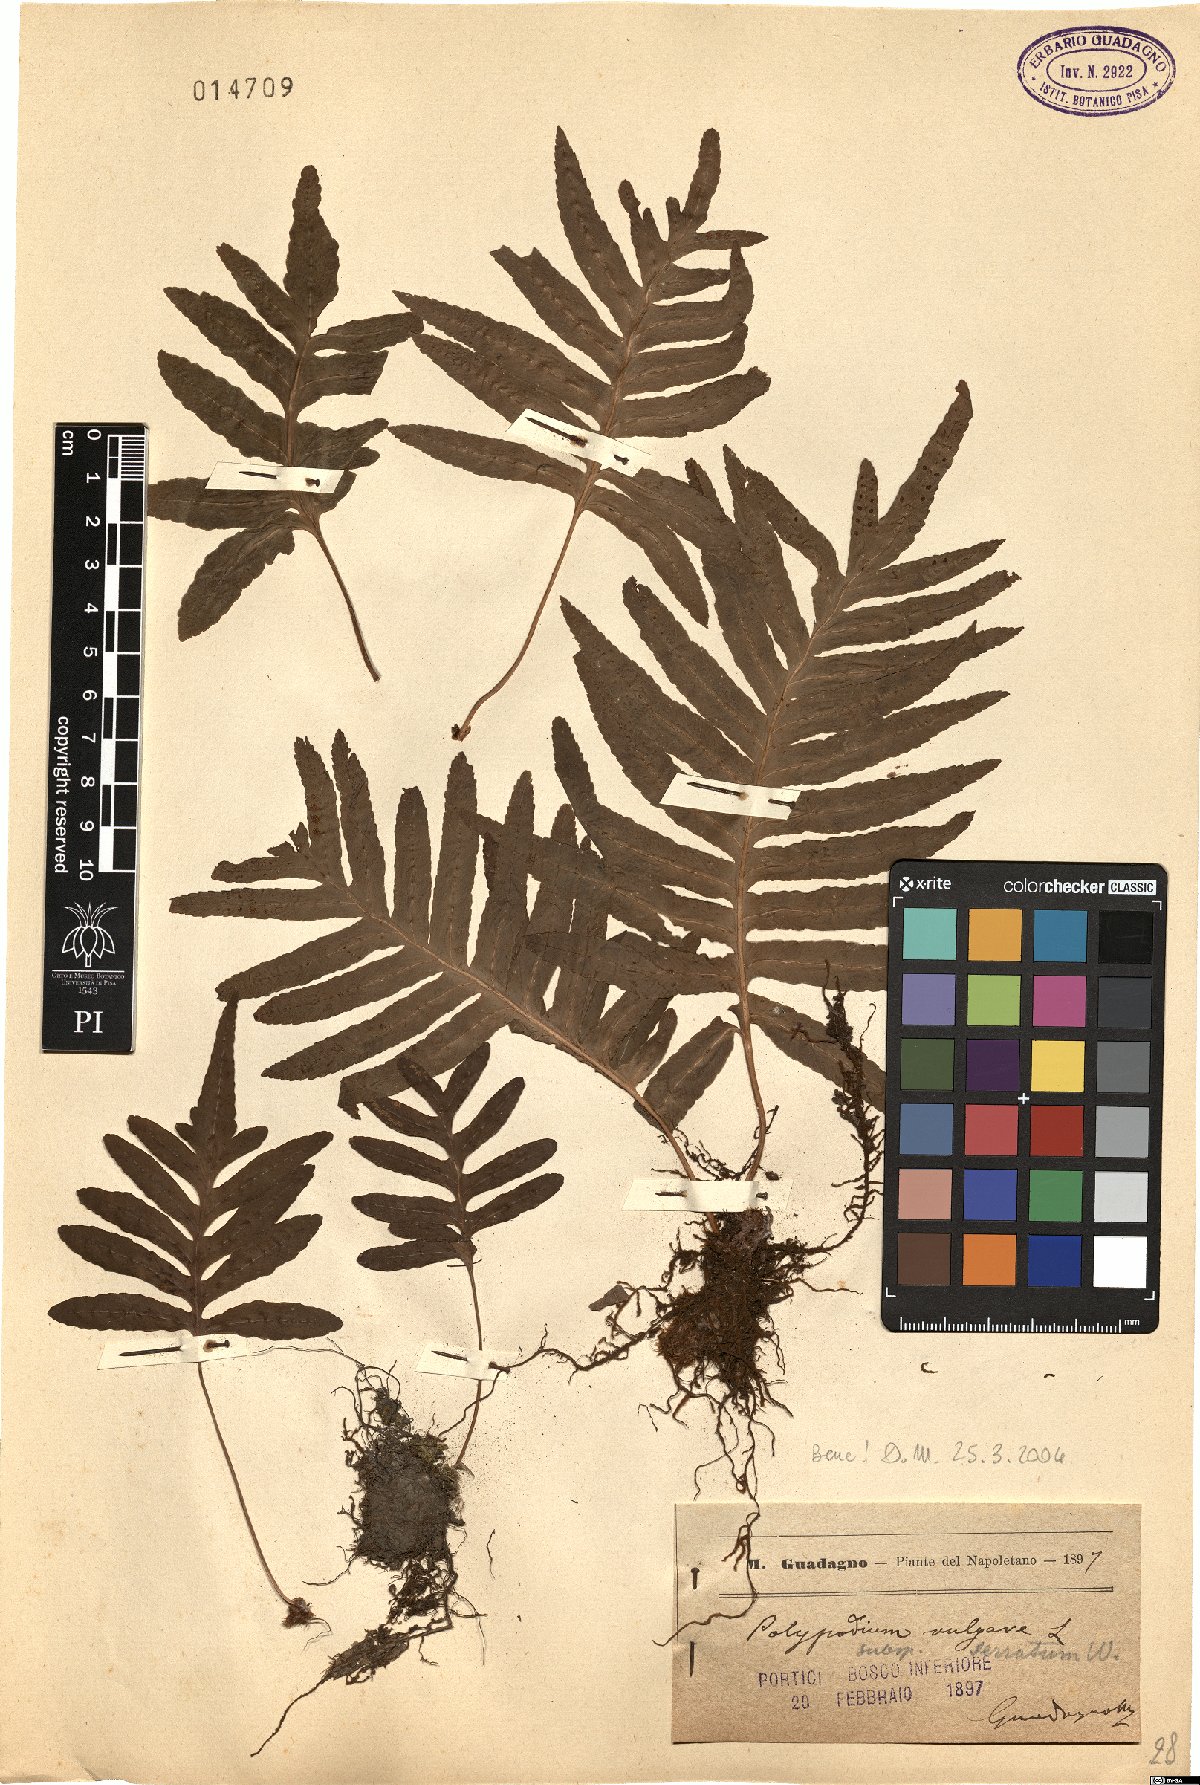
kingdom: Plantae
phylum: Tracheophyta
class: Polypodiopsida
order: Polypodiales
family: Polypodiaceae
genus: Polypodium
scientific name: Polypodium cambricum
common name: Southern polypody
